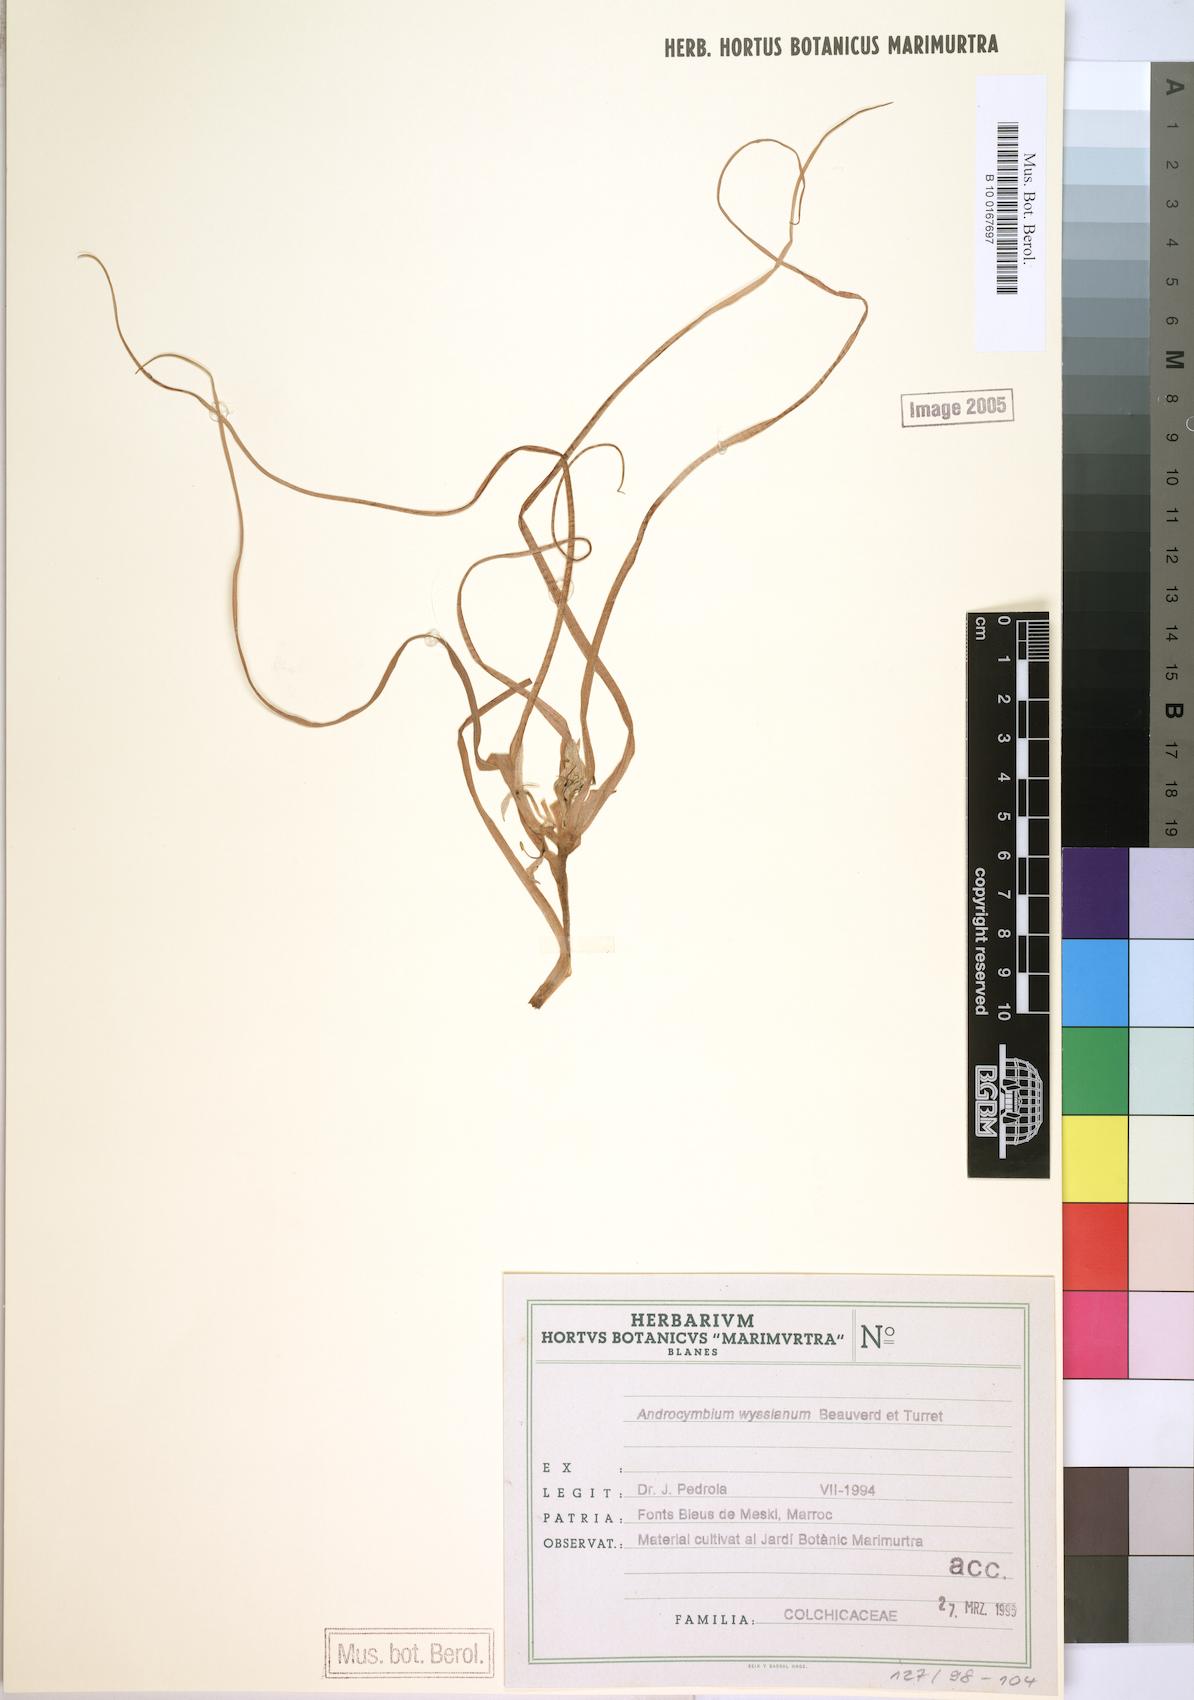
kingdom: Plantae
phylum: Tracheophyta
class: Liliopsida
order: Liliales
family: Colchicaceae
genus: Colchicum
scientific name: Colchicum gramineum
